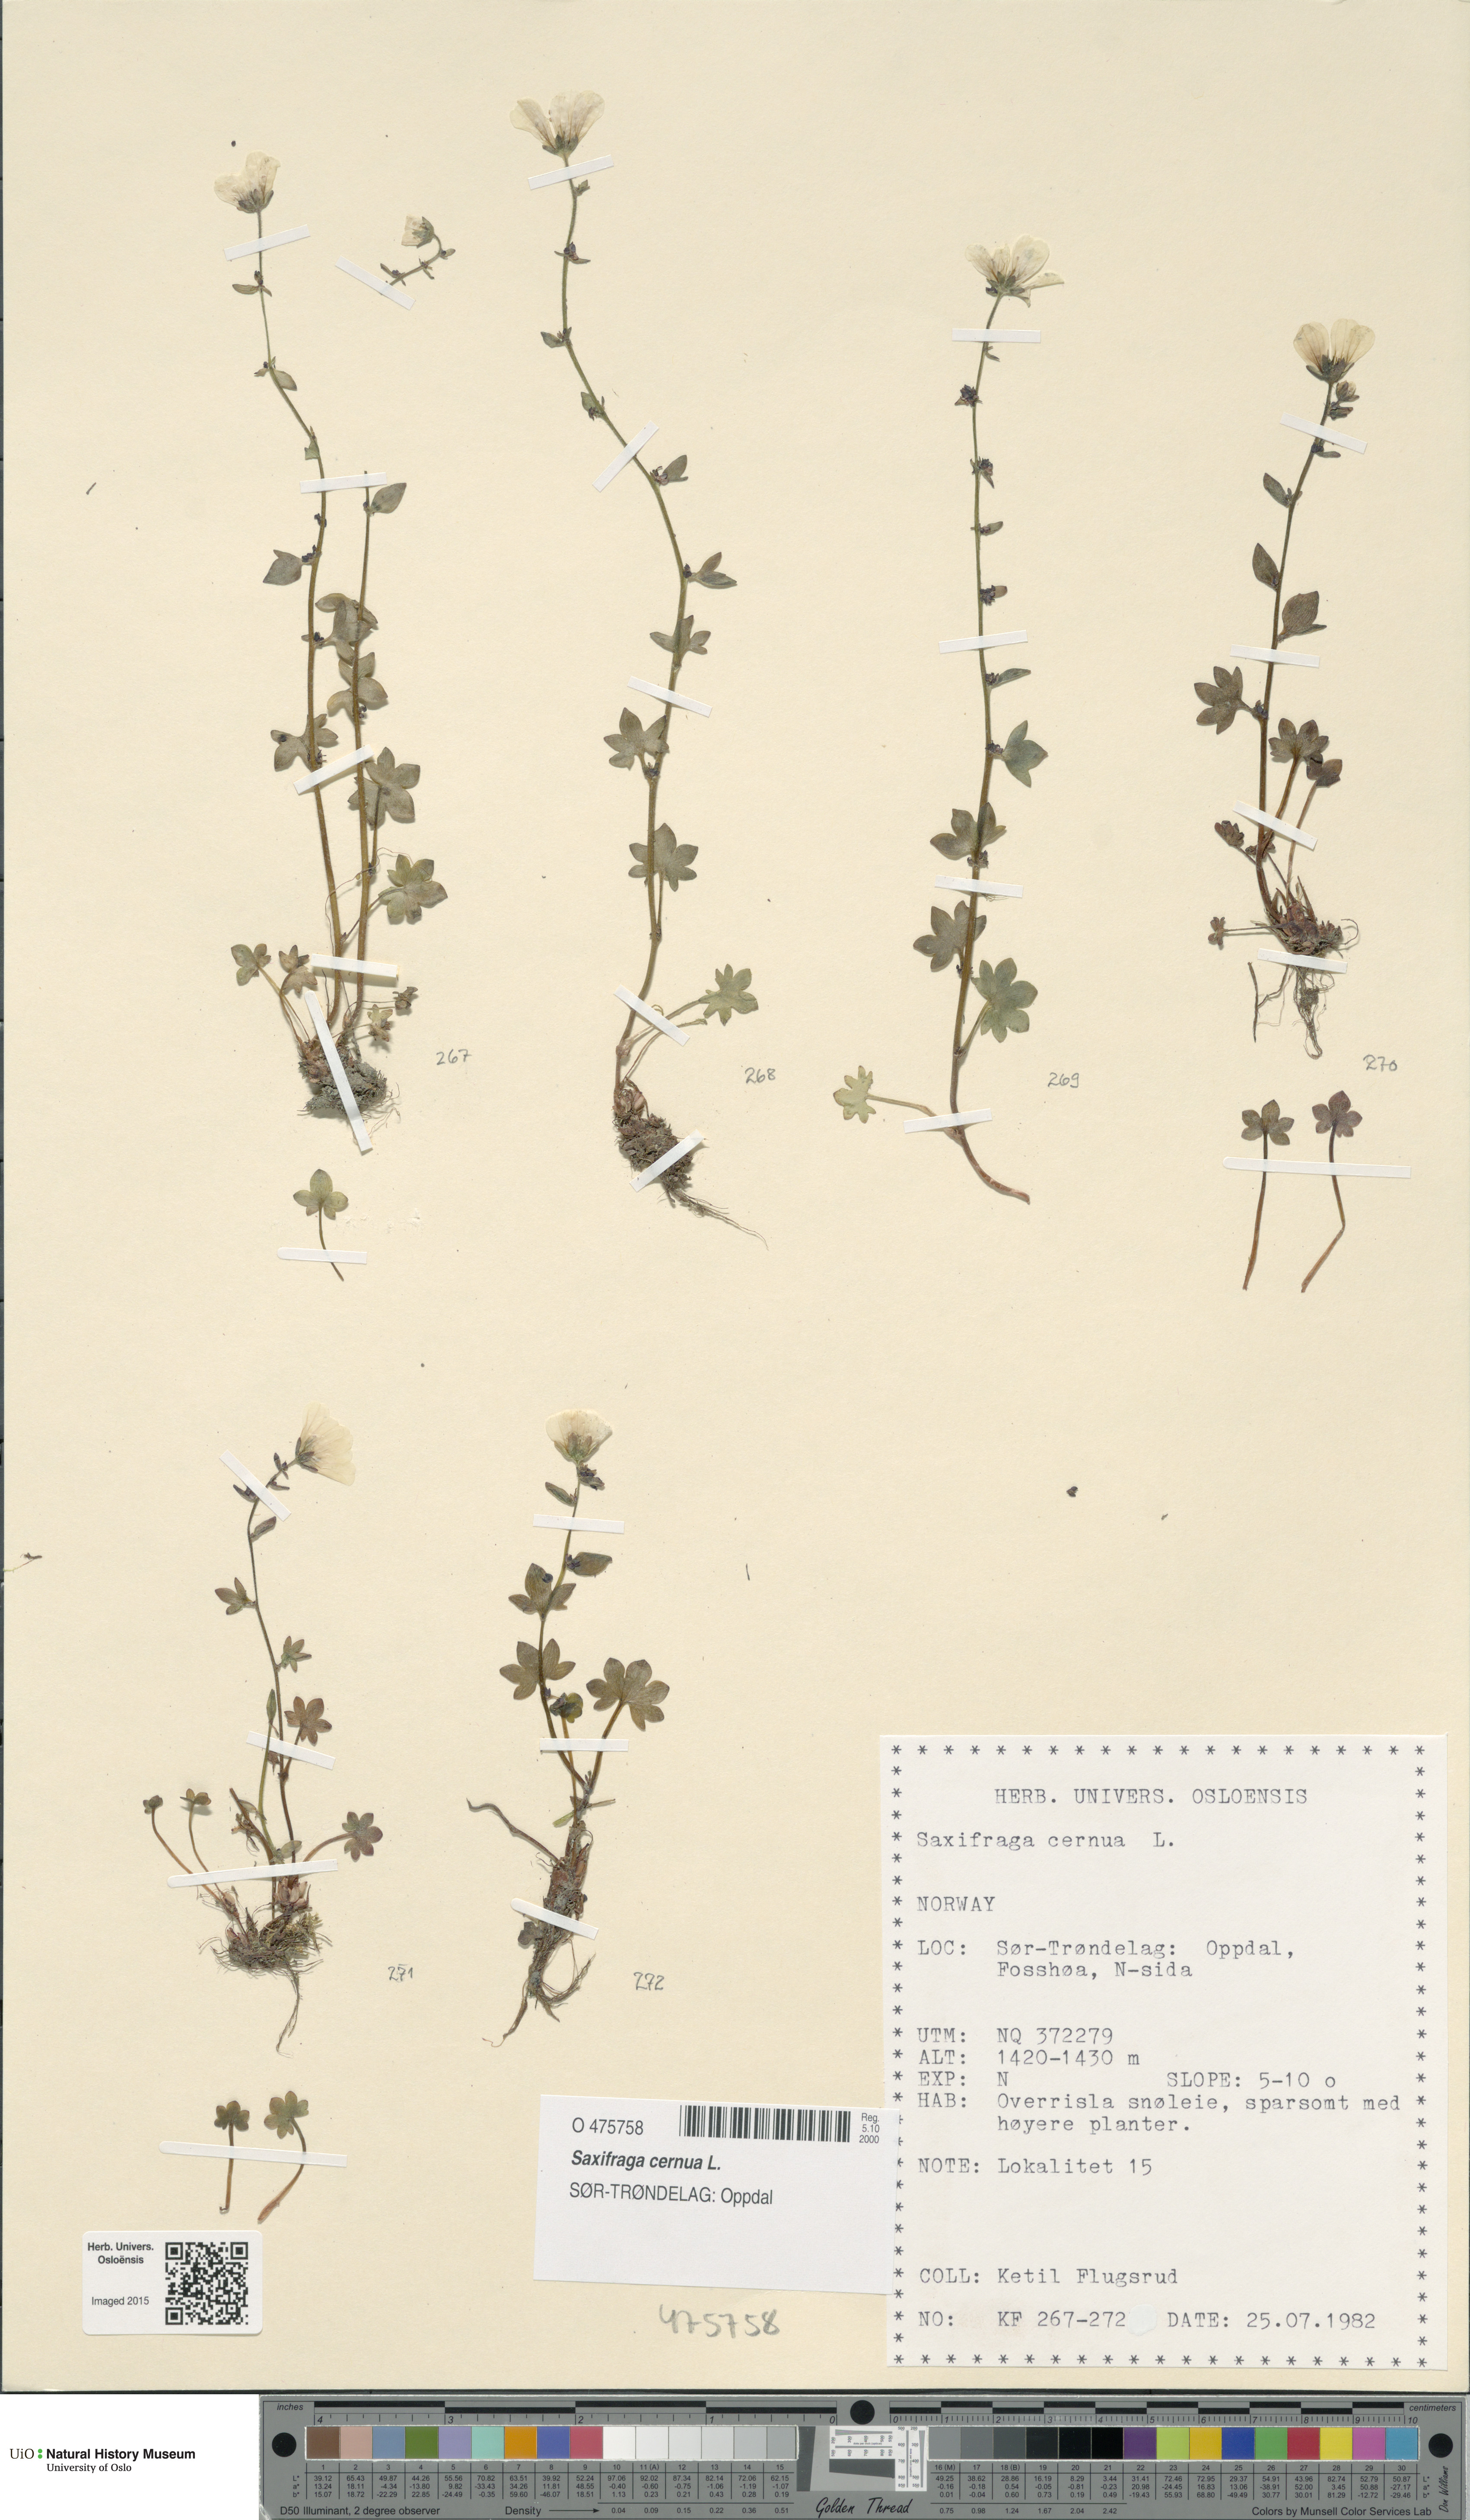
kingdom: Plantae
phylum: Tracheophyta
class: Magnoliopsida
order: Saxifragales
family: Saxifragaceae
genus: Saxifraga
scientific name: Saxifraga cernua
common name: Drooping saxifrage
